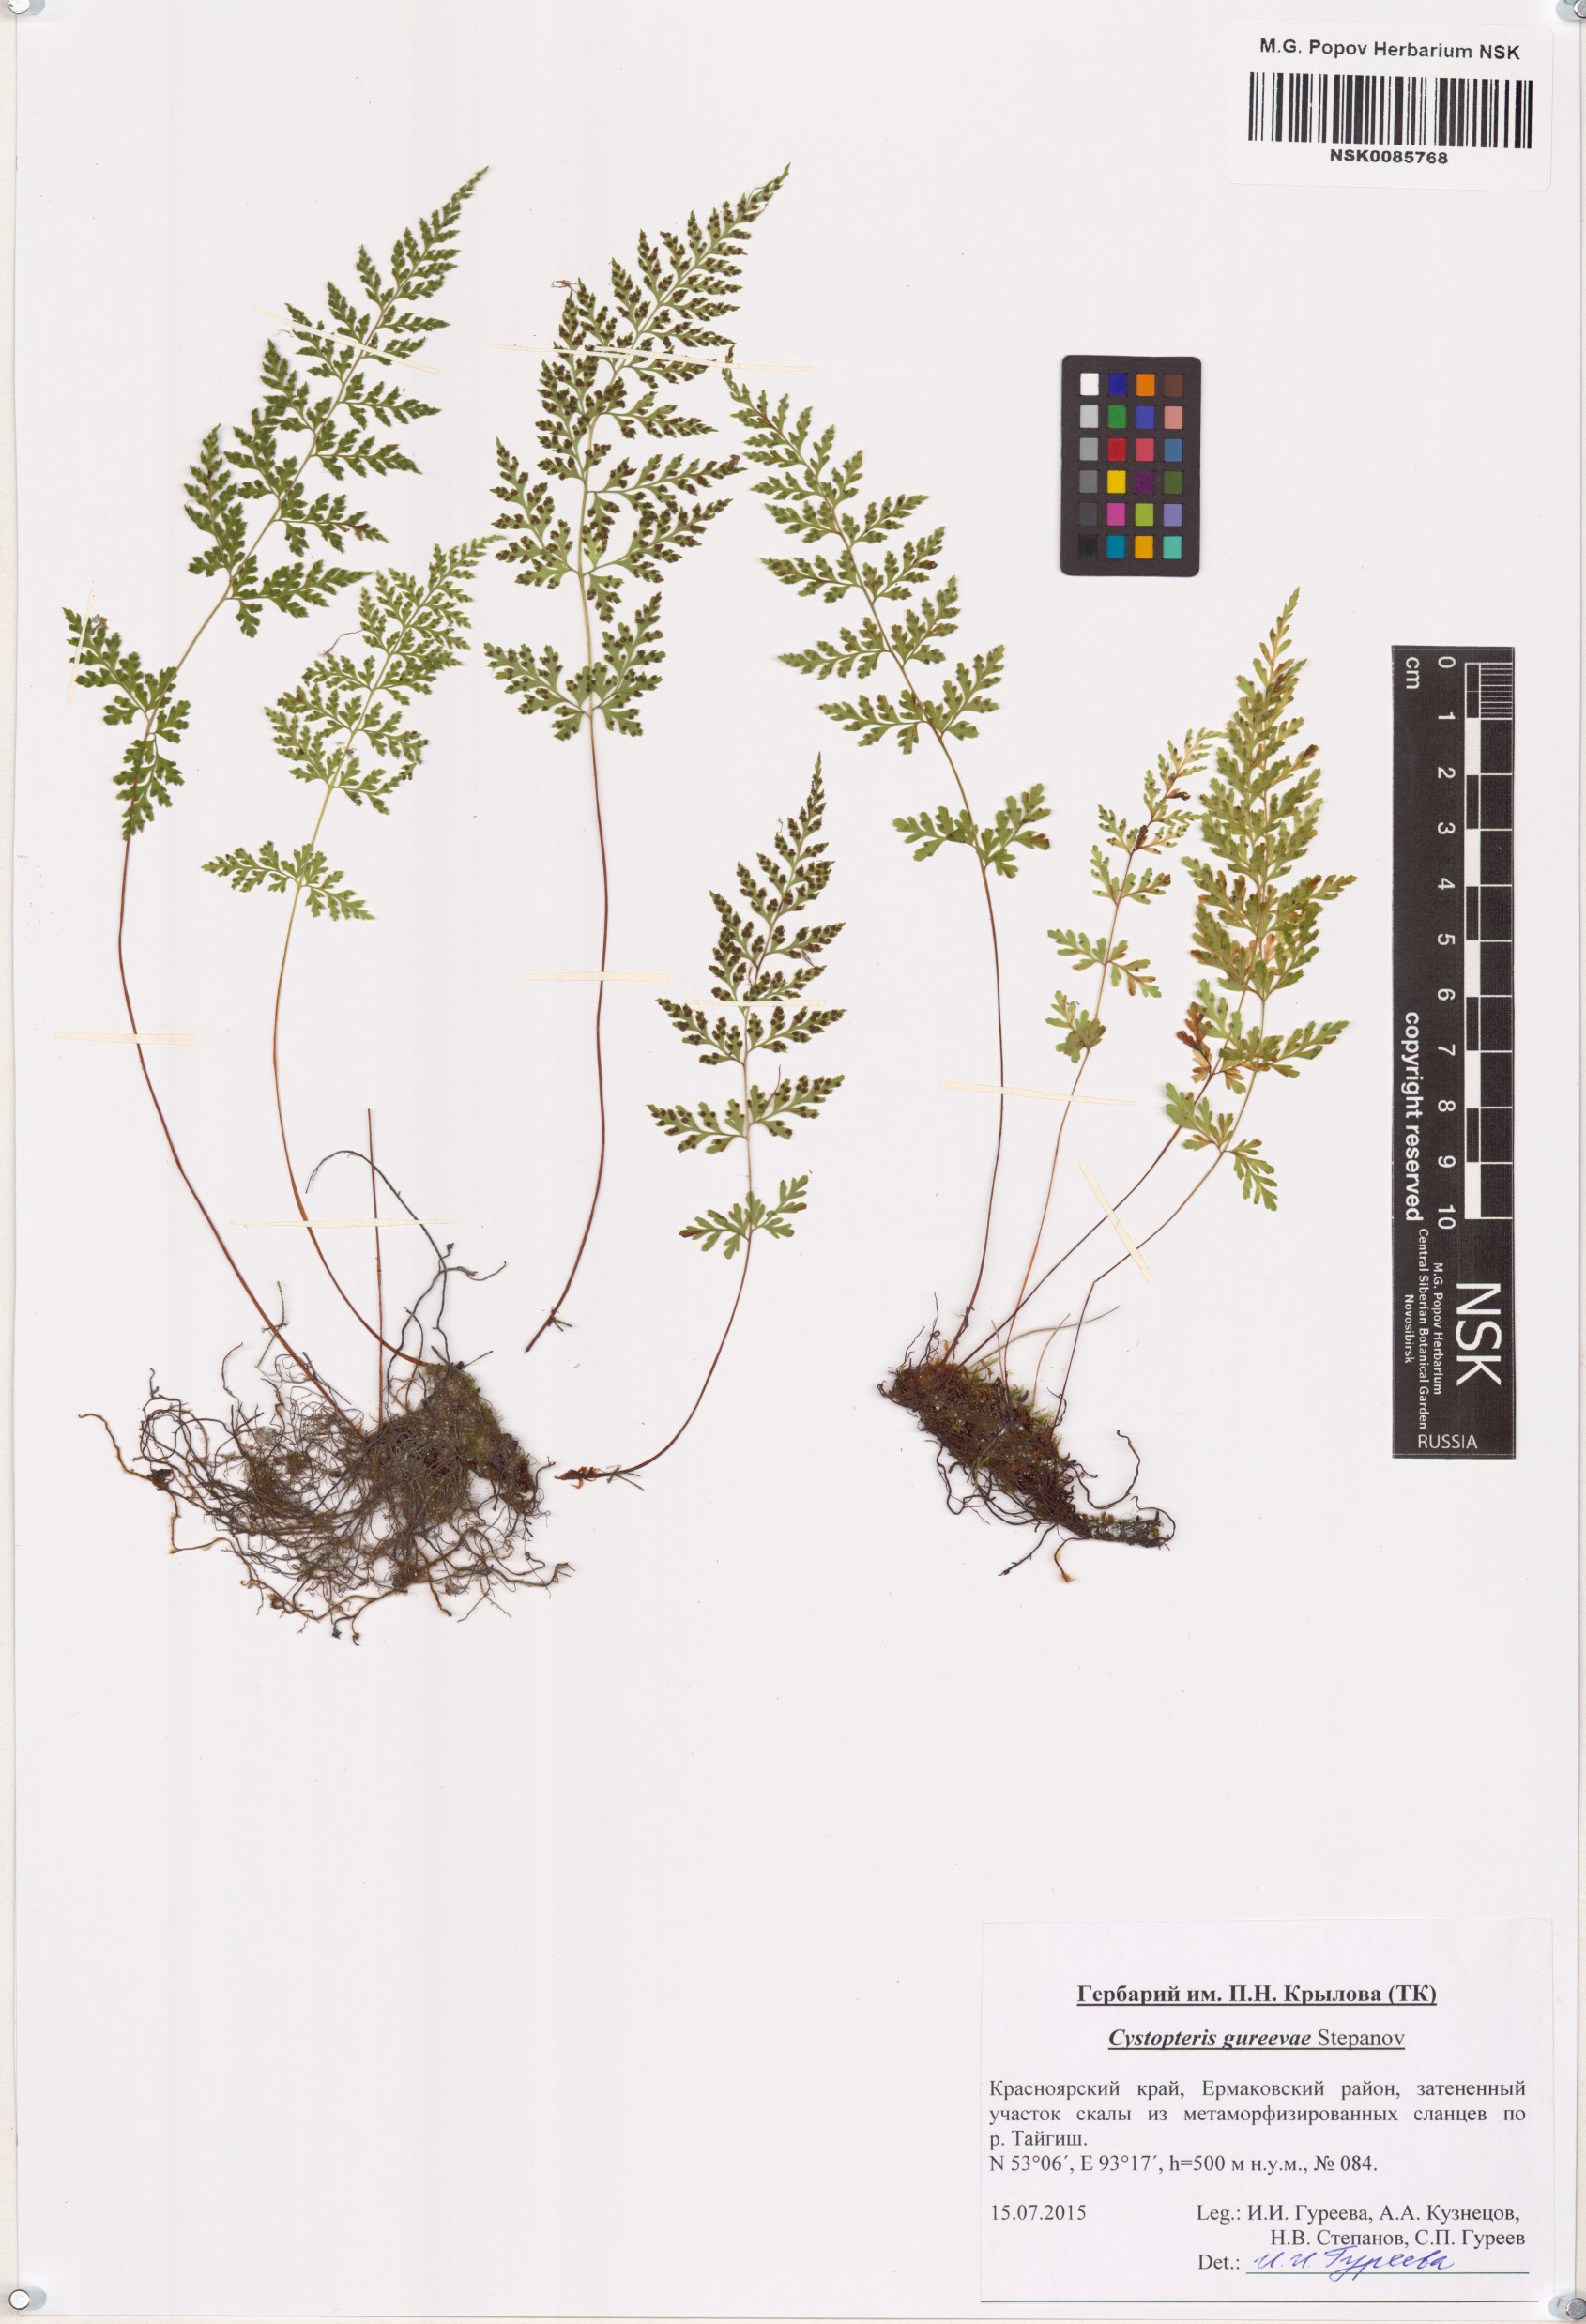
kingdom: Plantae
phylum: Tracheophyta
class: Polypodiopsida
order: Polypodiales
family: Cystopteridaceae
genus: Cystopteris
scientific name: Cystopteris diaphana
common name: Greenish bladder-fern
